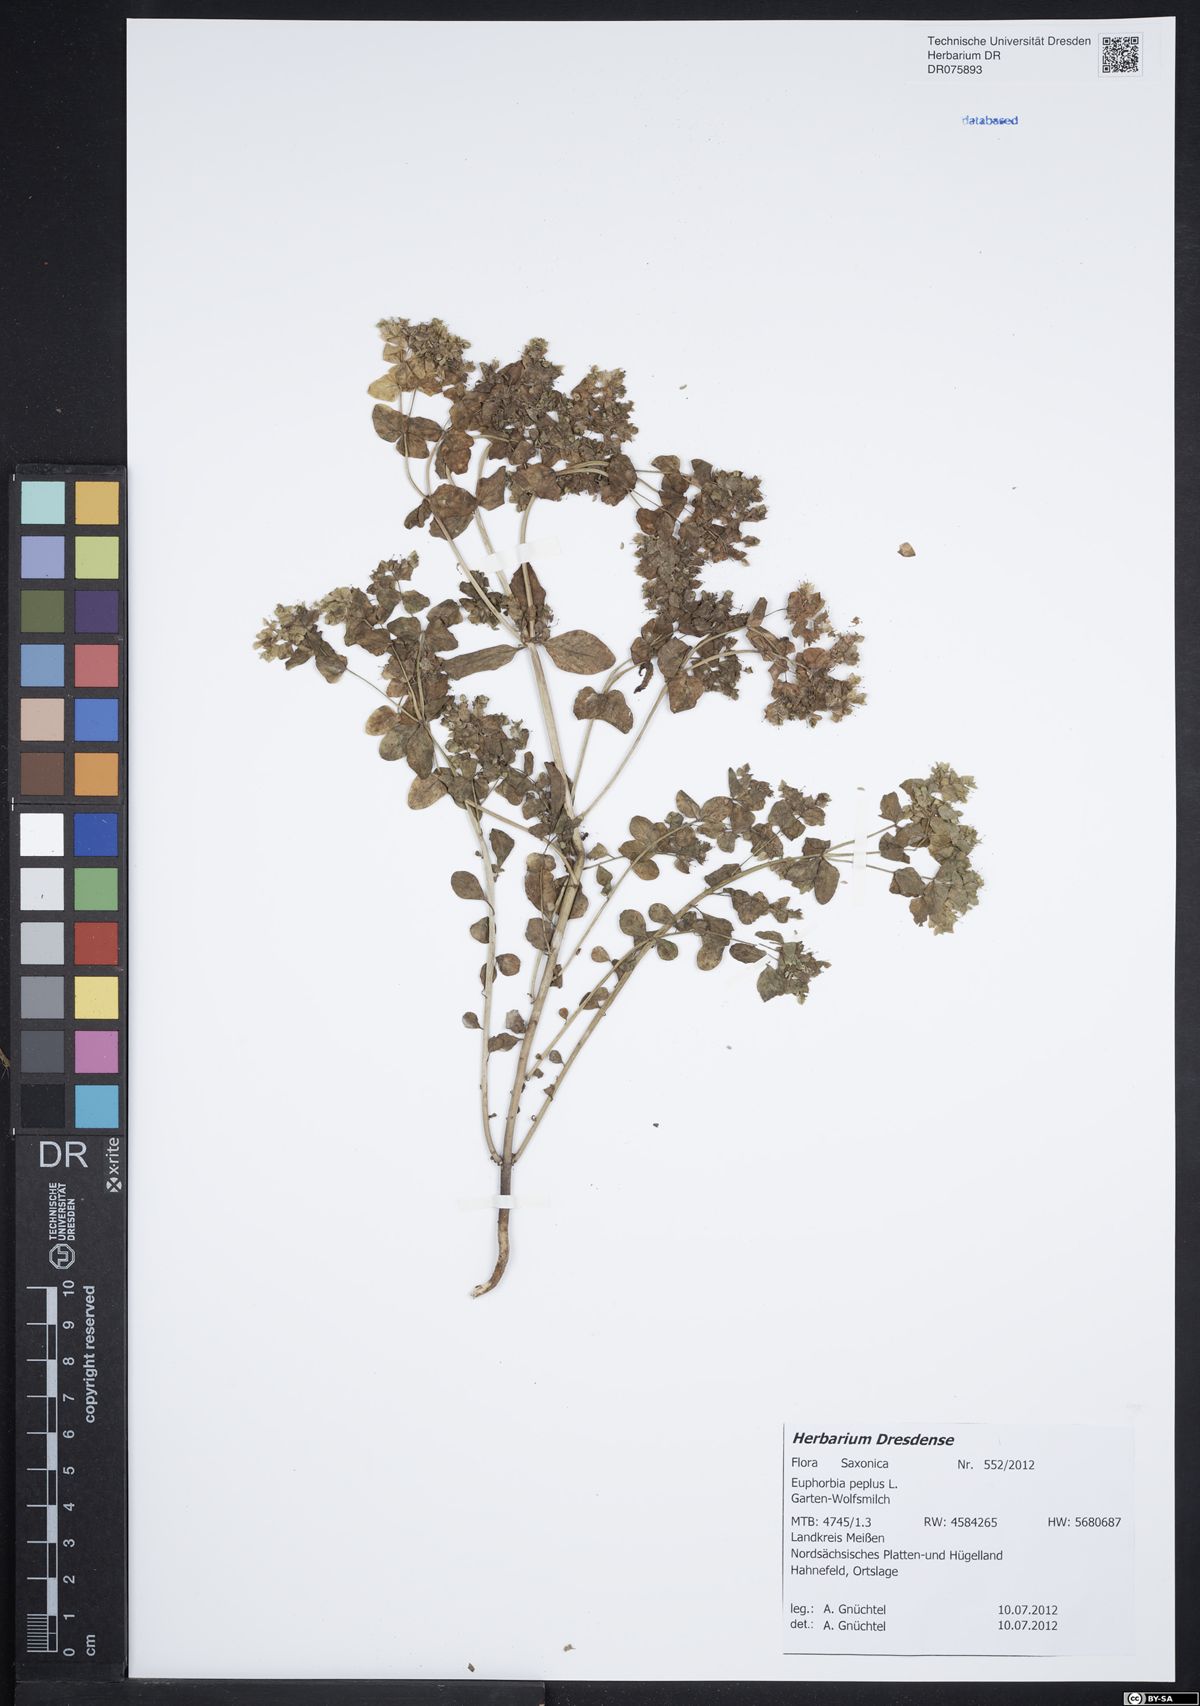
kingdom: Plantae
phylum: Tracheophyta
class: Magnoliopsida
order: Malpighiales
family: Euphorbiaceae
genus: Euphorbia
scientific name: Euphorbia peplus
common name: Petty spurge
